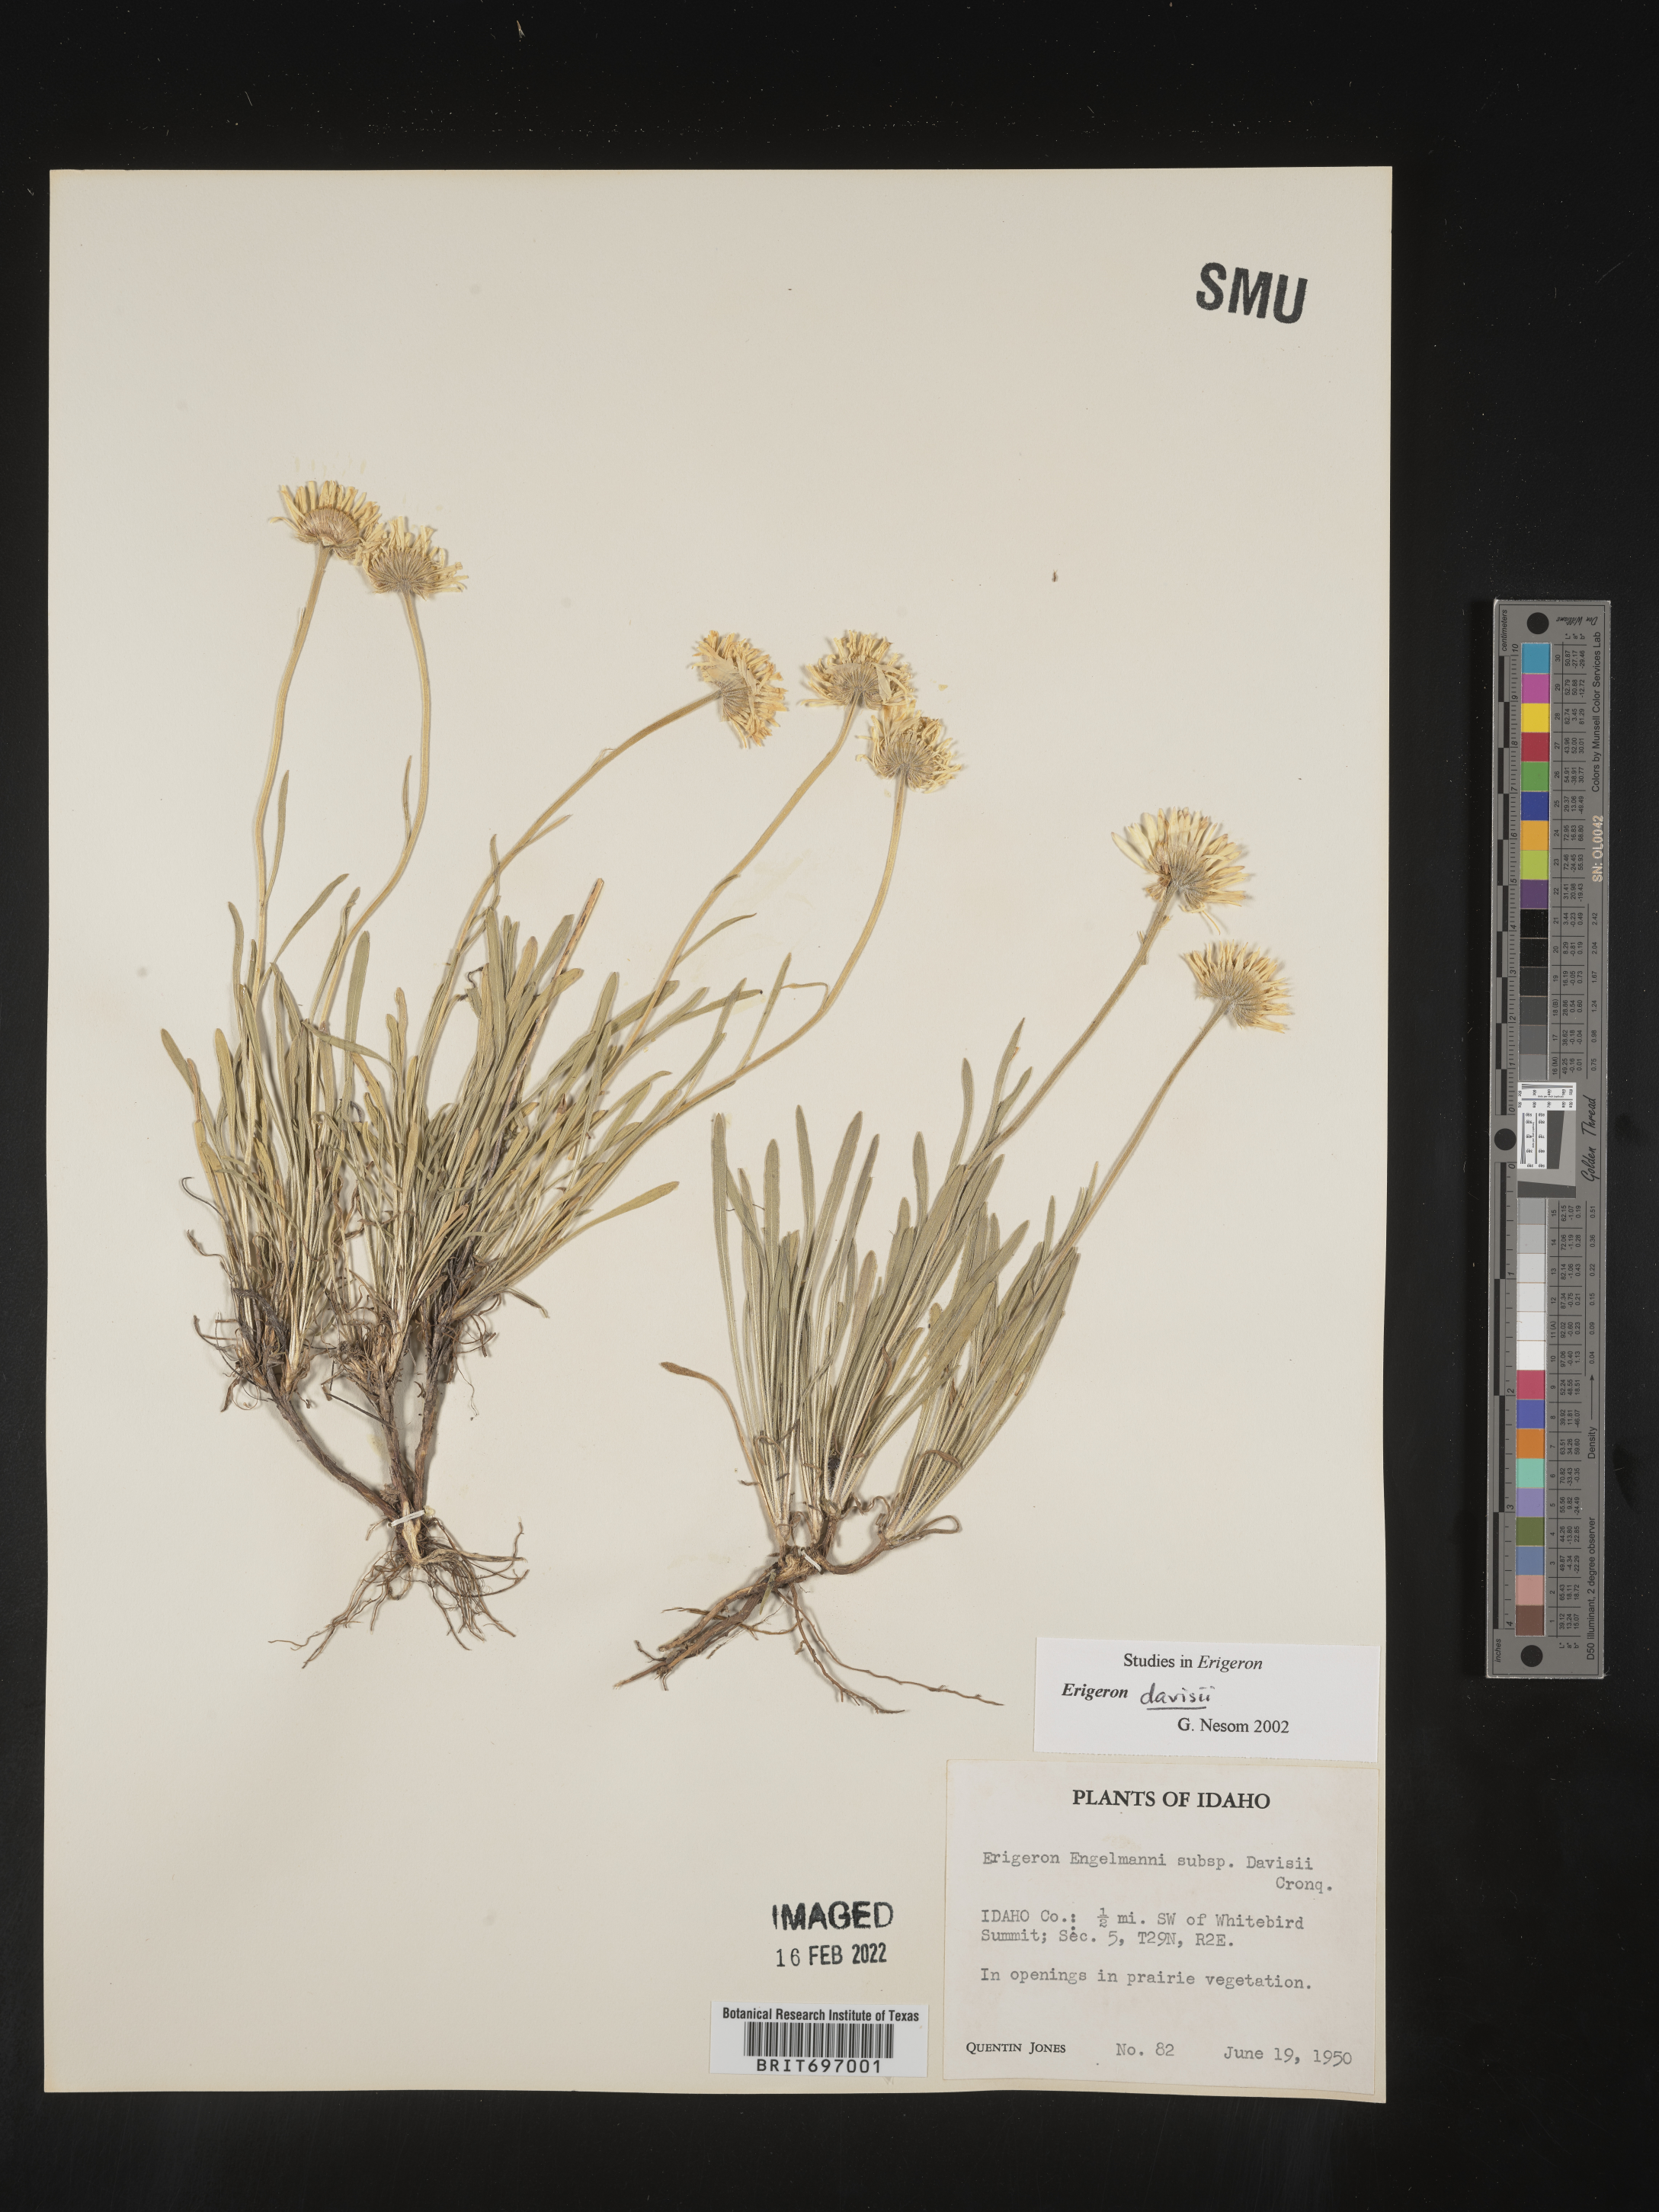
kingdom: Plantae
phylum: Tracheophyta
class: Magnoliopsida
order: Asterales
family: Asteraceae
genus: Erigeron
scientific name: Erigeron davisii
